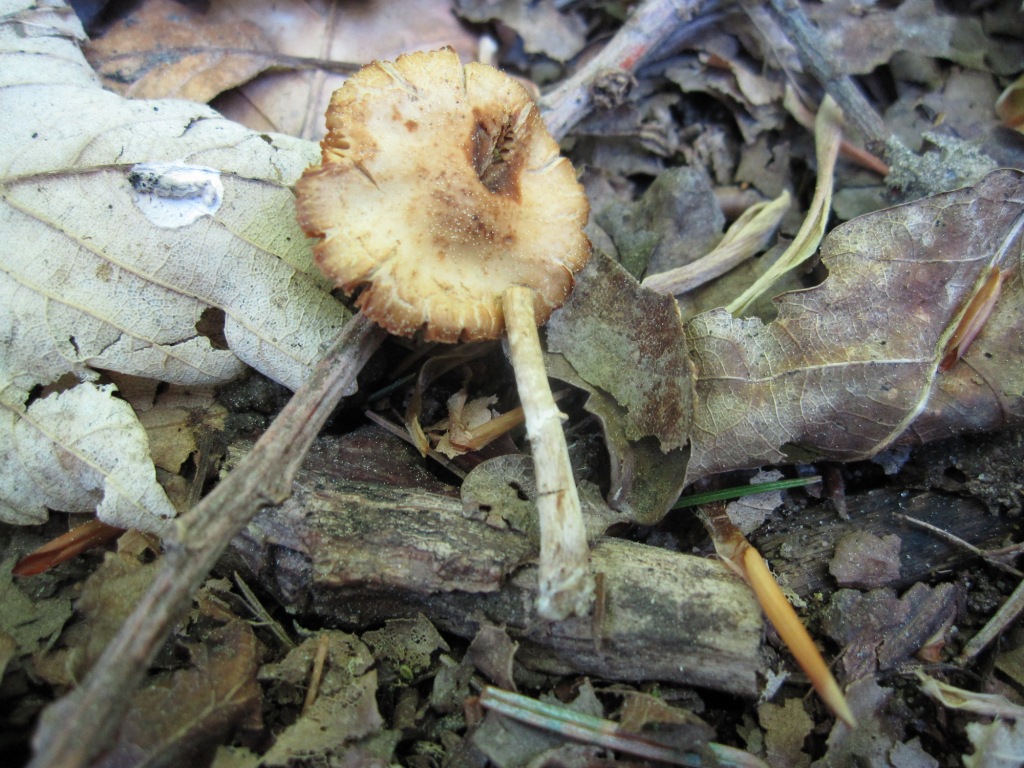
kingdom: Fungi
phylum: Basidiomycota
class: Agaricomycetes
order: Agaricales
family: Bolbitiaceae
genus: Conocybe
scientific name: Conocybe aporos
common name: tidlig dansehat
